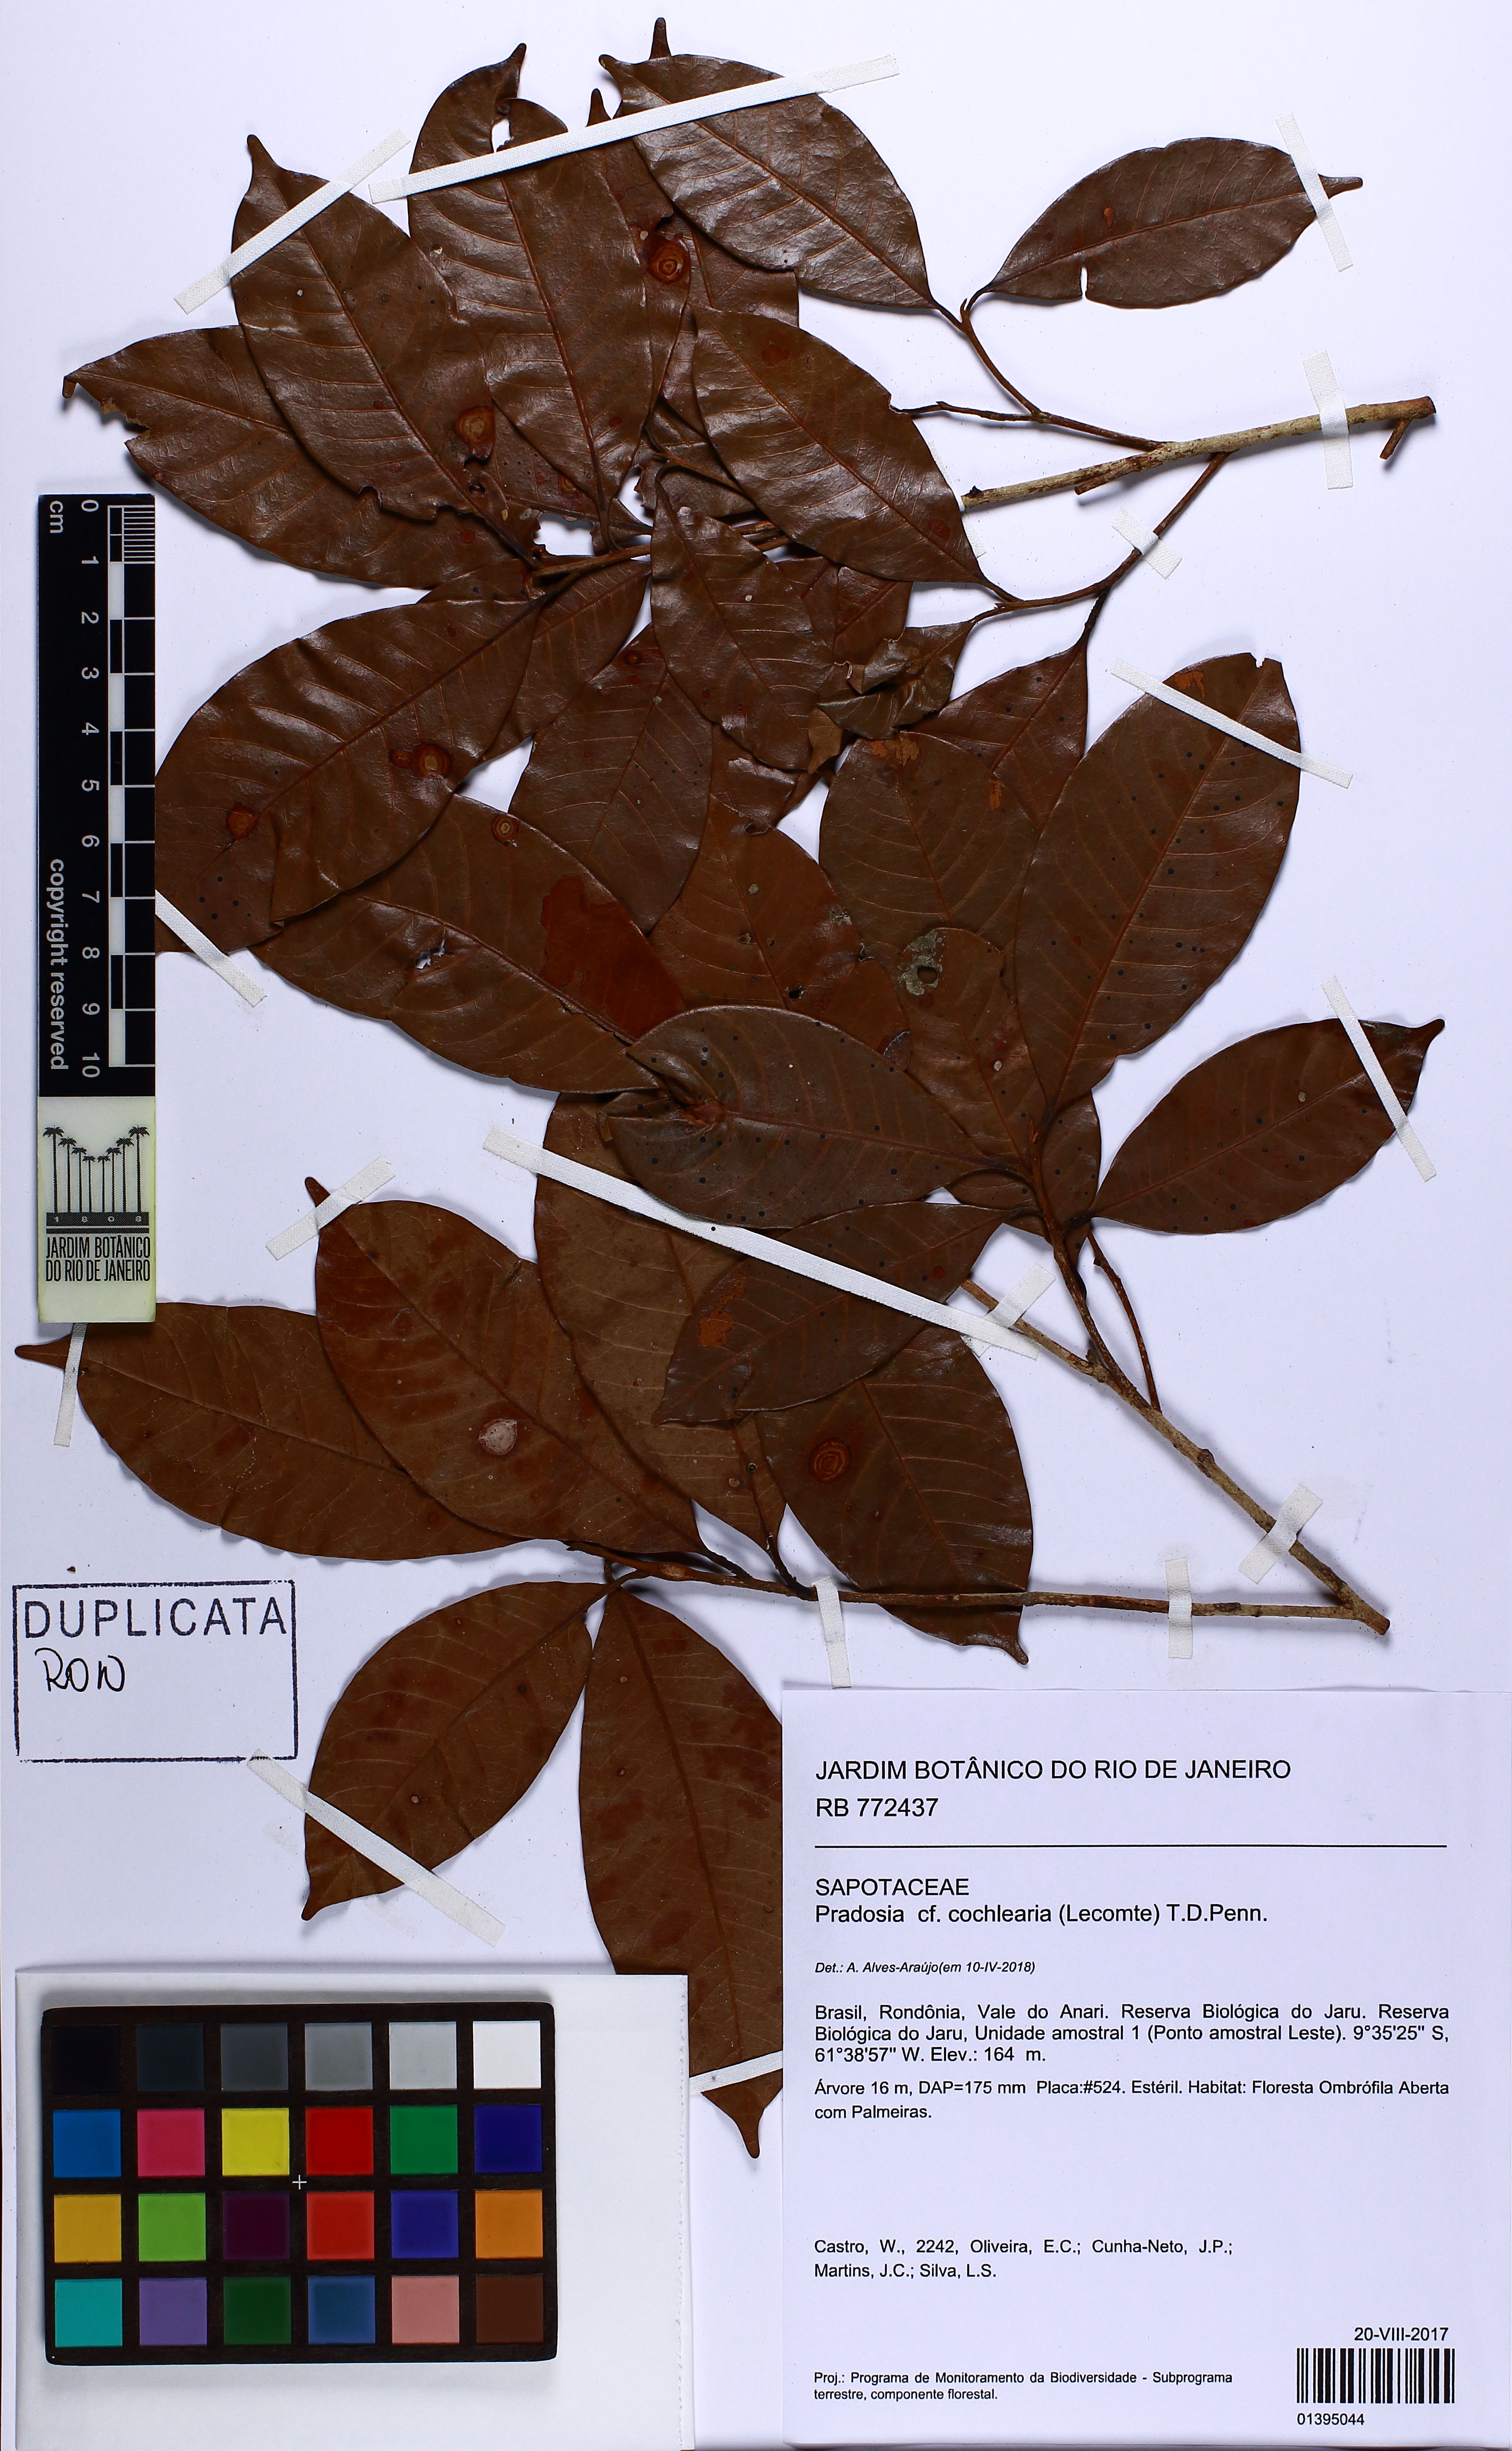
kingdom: Plantae
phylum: Tracheophyta
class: Magnoliopsida
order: Ericales
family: Sapotaceae
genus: Pradosia
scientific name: Pradosia cochlearia
